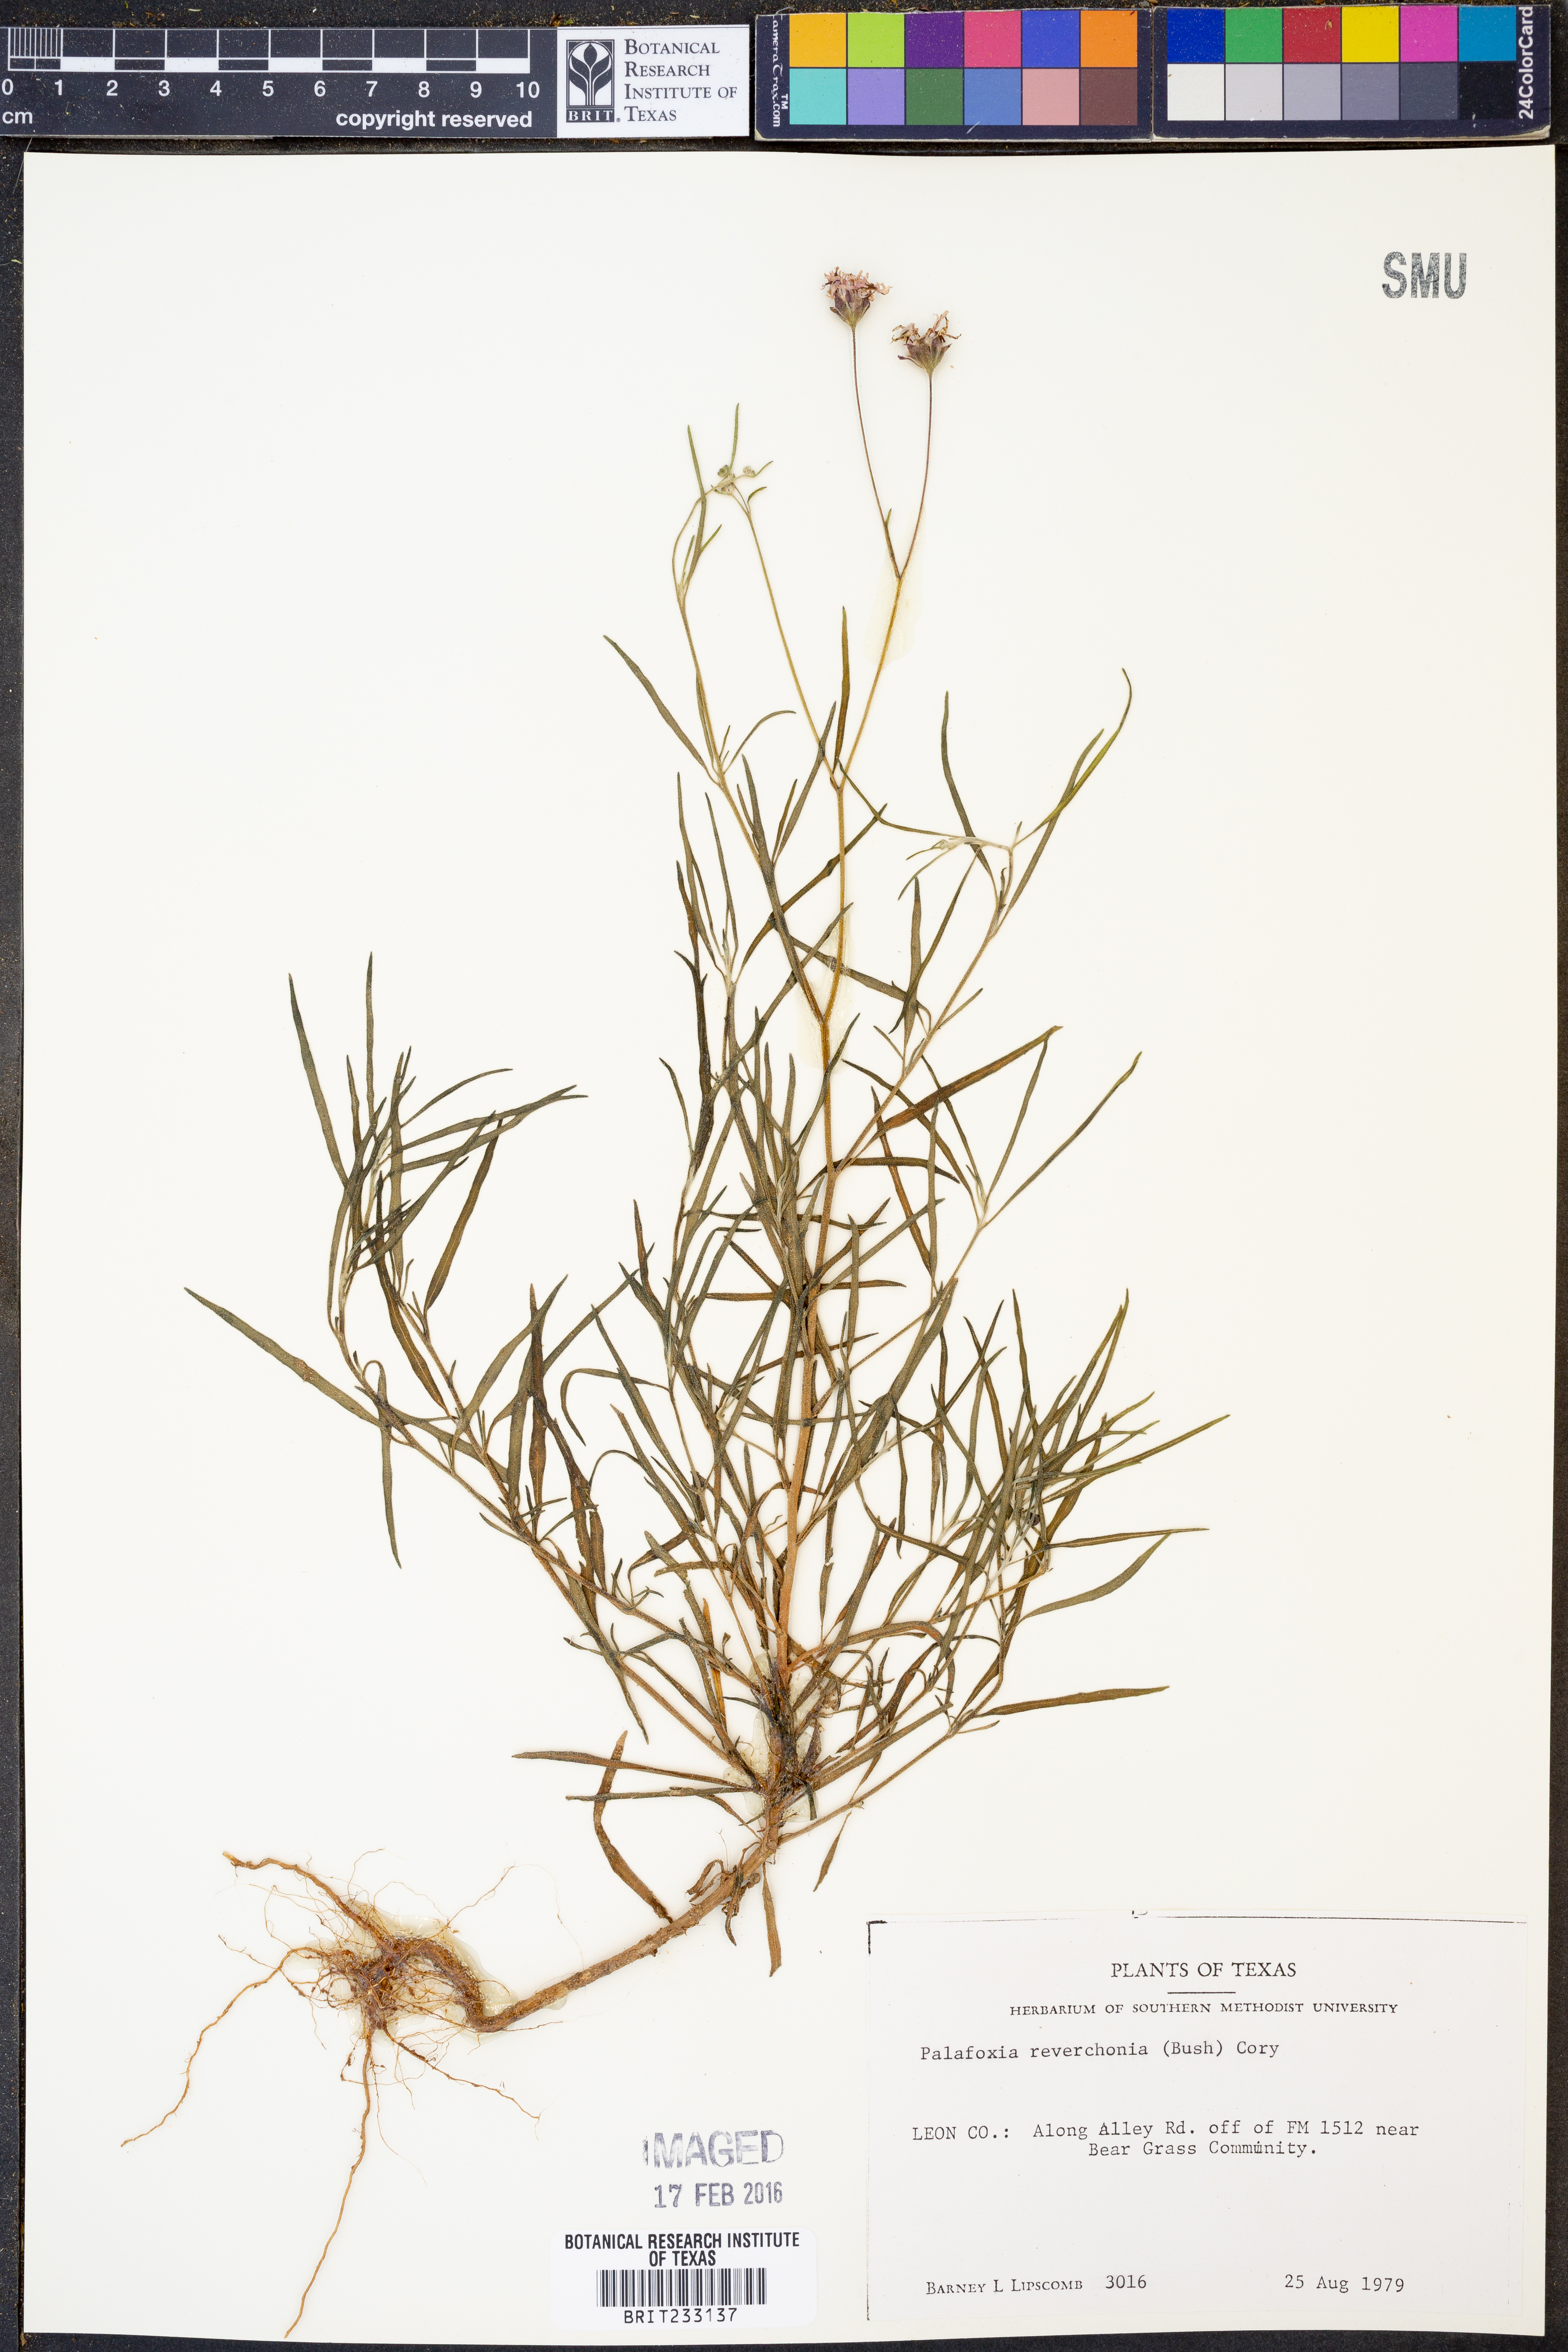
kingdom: Plantae
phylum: Tracheophyta
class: Magnoliopsida
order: Asterales
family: Asteraceae
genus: Palafoxia
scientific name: Palafoxia reverchonii
